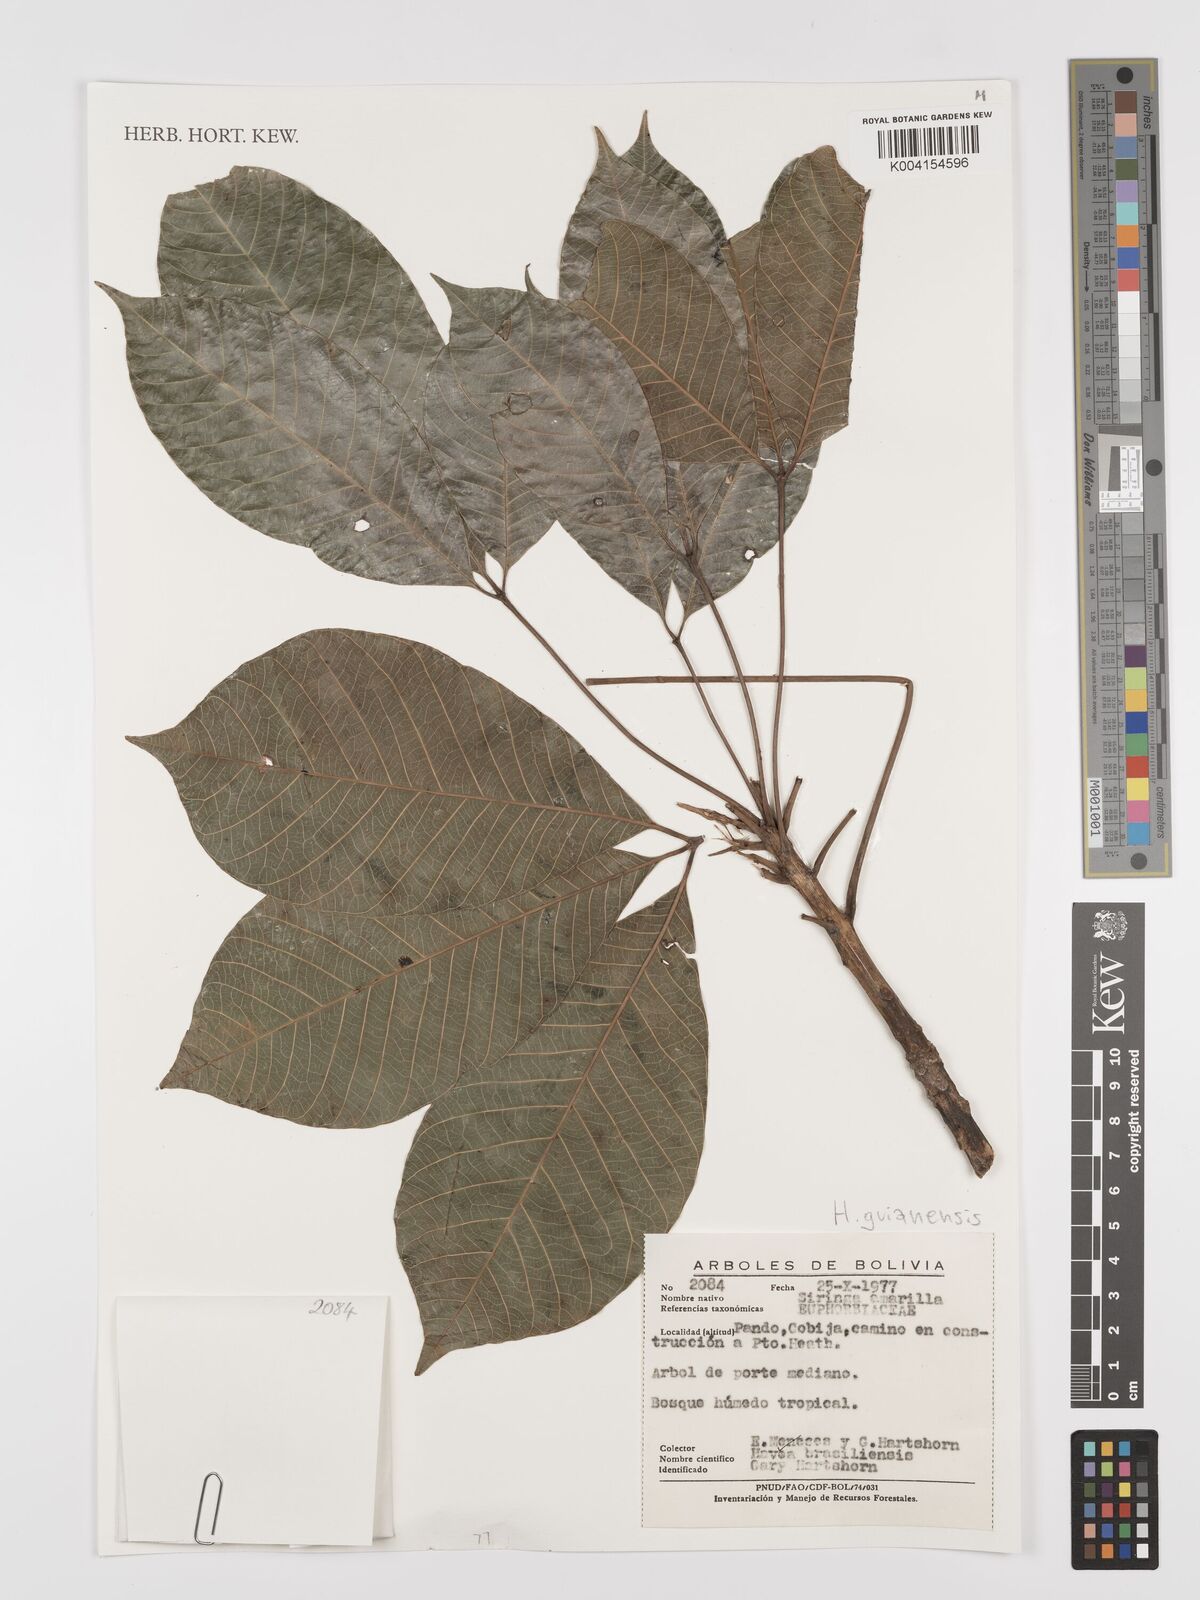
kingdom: Plantae
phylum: Tracheophyta
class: Magnoliopsida
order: Malpighiales
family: Euphorbiaceae
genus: Hevea
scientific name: Hevea guianensis
